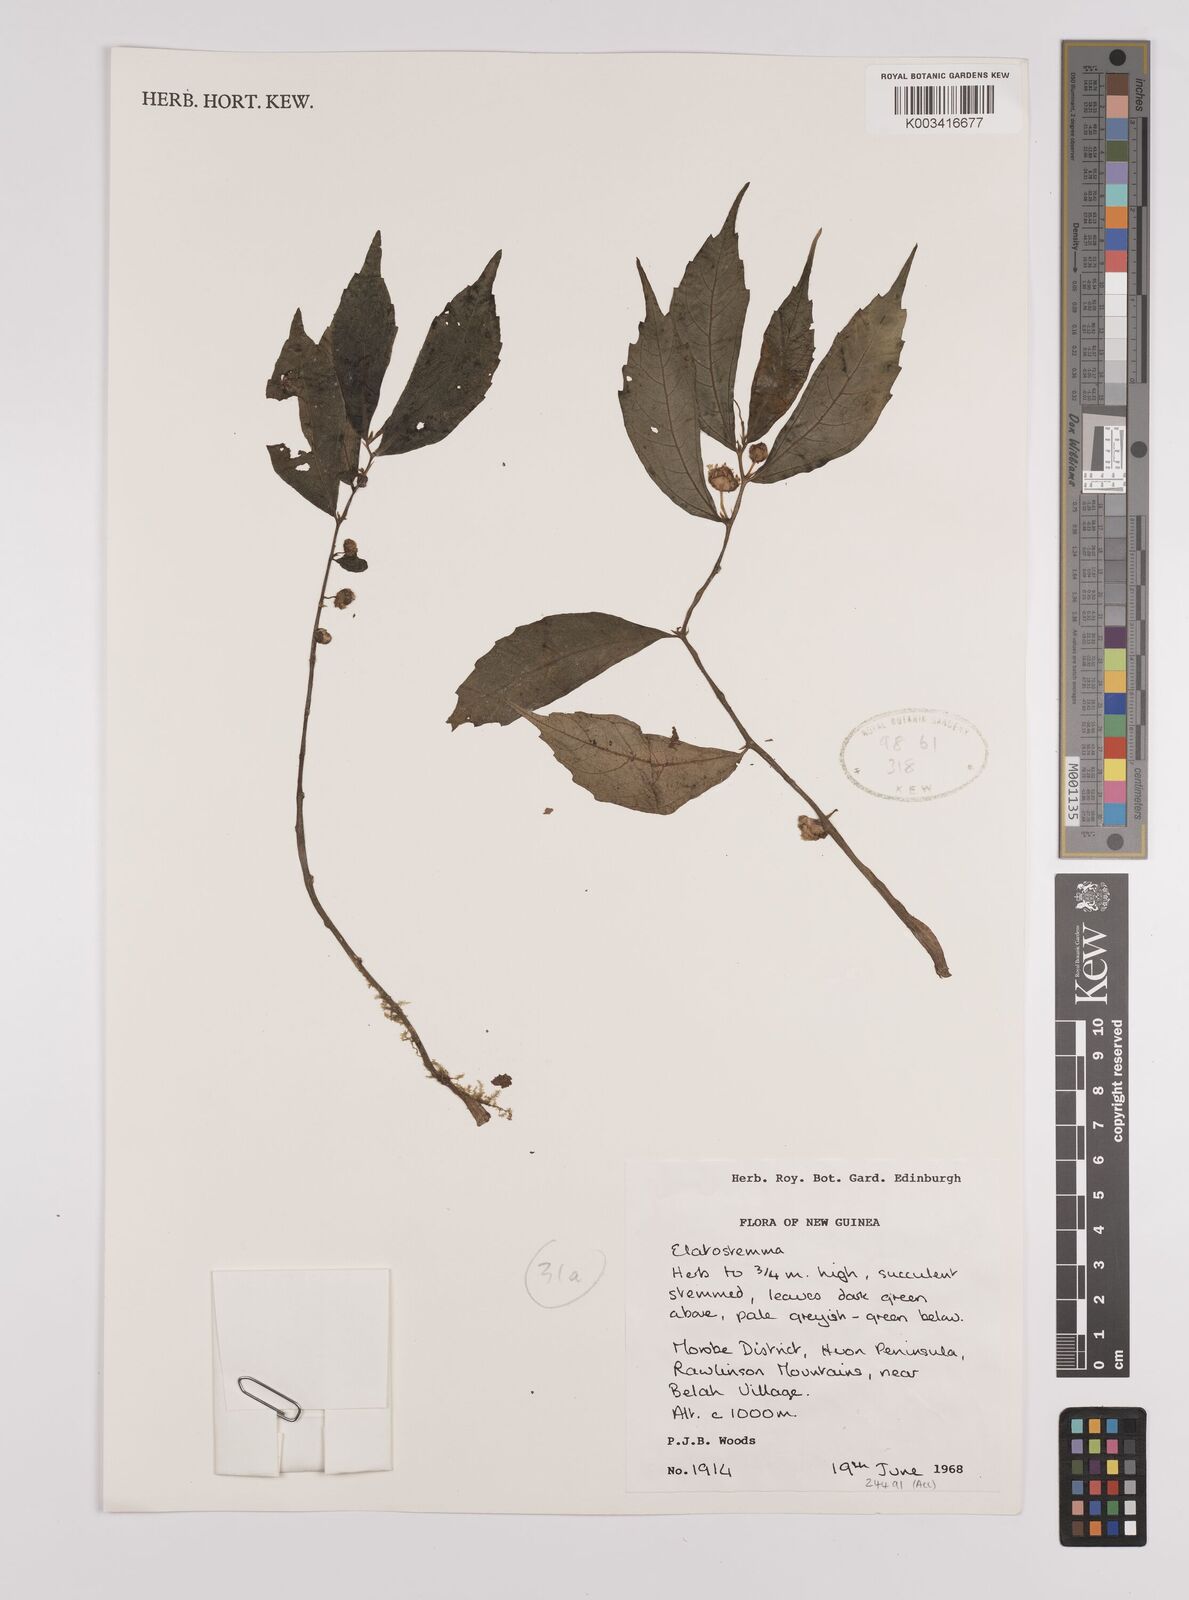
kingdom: Plantae
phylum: Tracheophyta
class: Magnoliopsida
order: Rosales
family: Urticaceae
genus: Elatostema
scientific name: Elatostema
